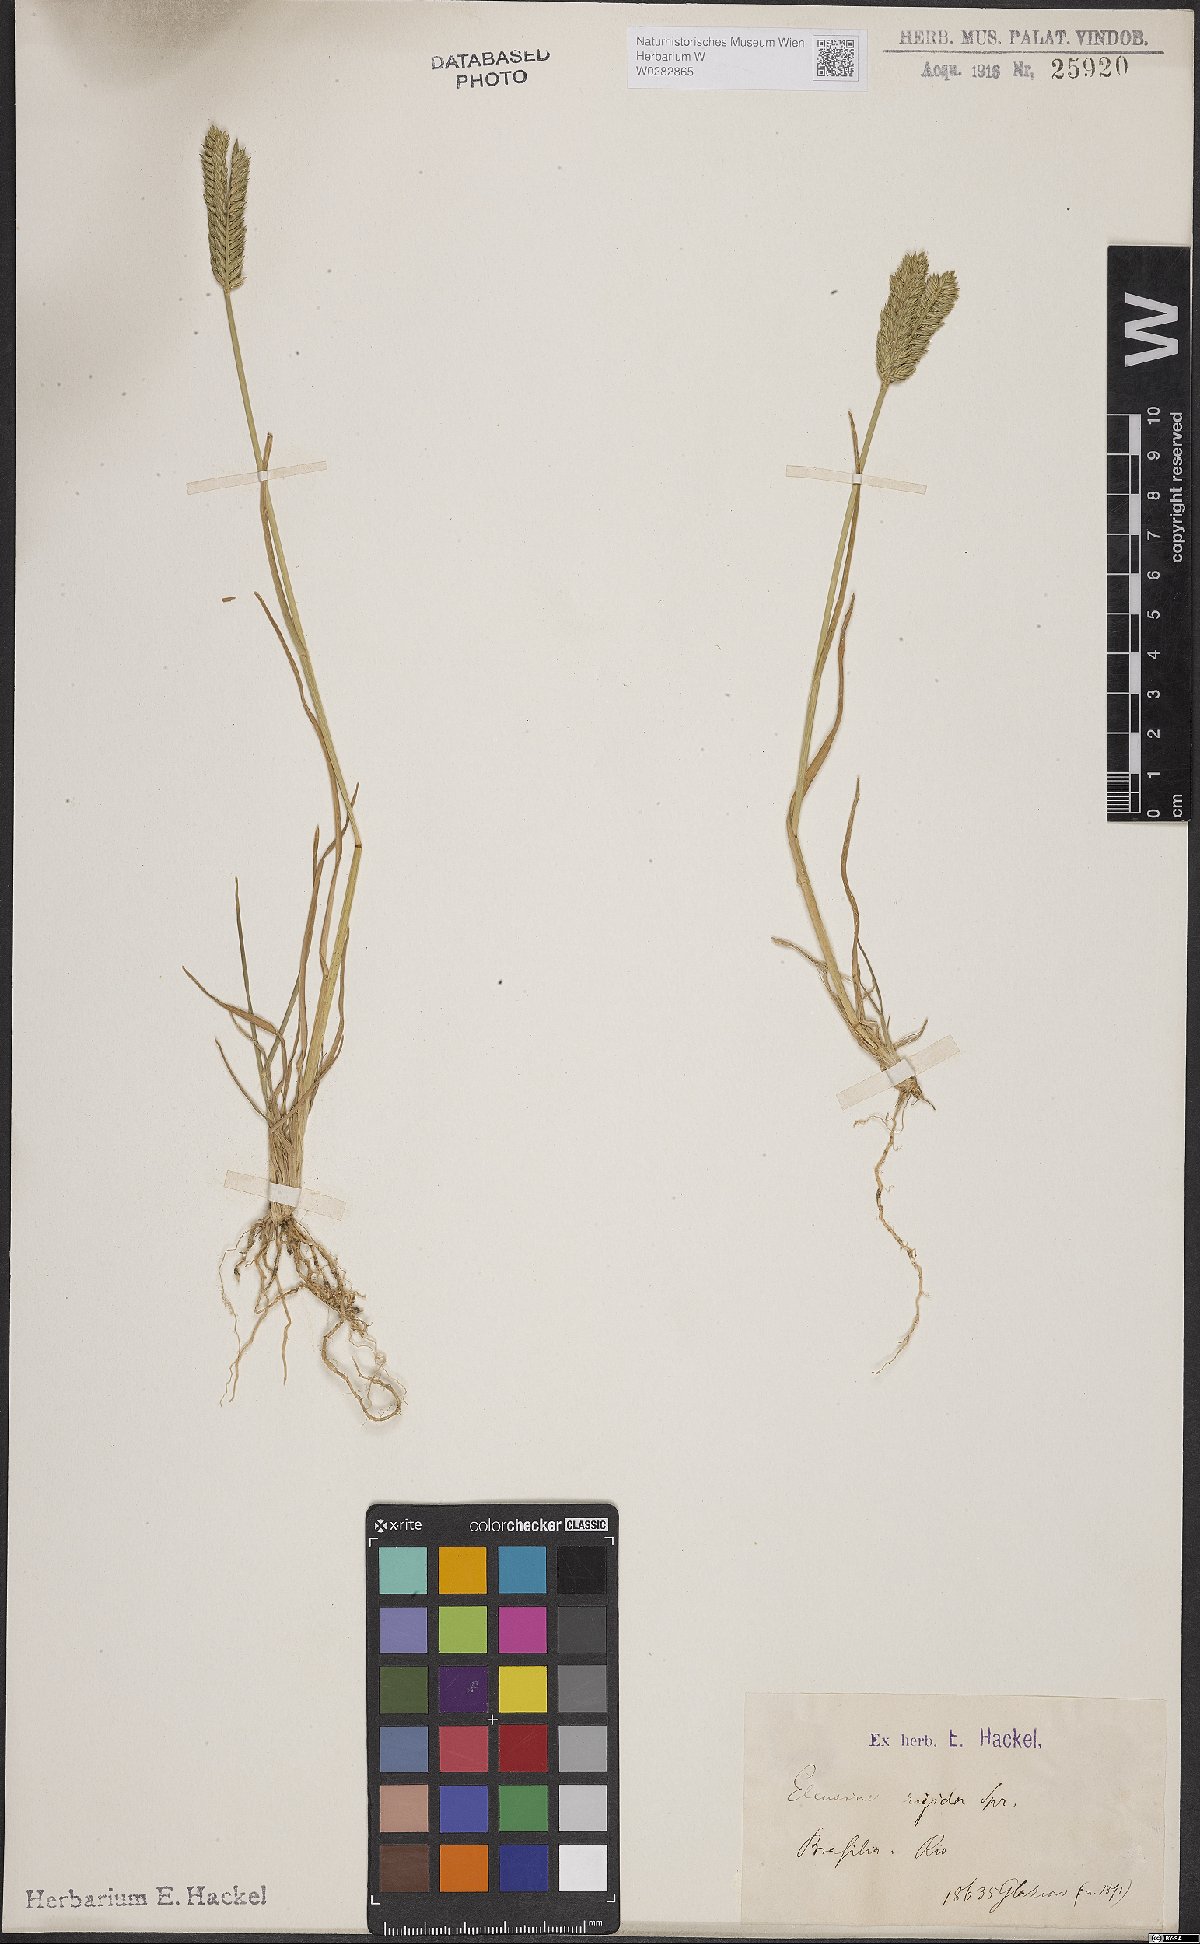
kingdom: Plantae
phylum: Tracheophyta
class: Liliopsida
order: Poales
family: Poaceae
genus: Eleusine
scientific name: Eleusine tristachya
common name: American yard-grass
